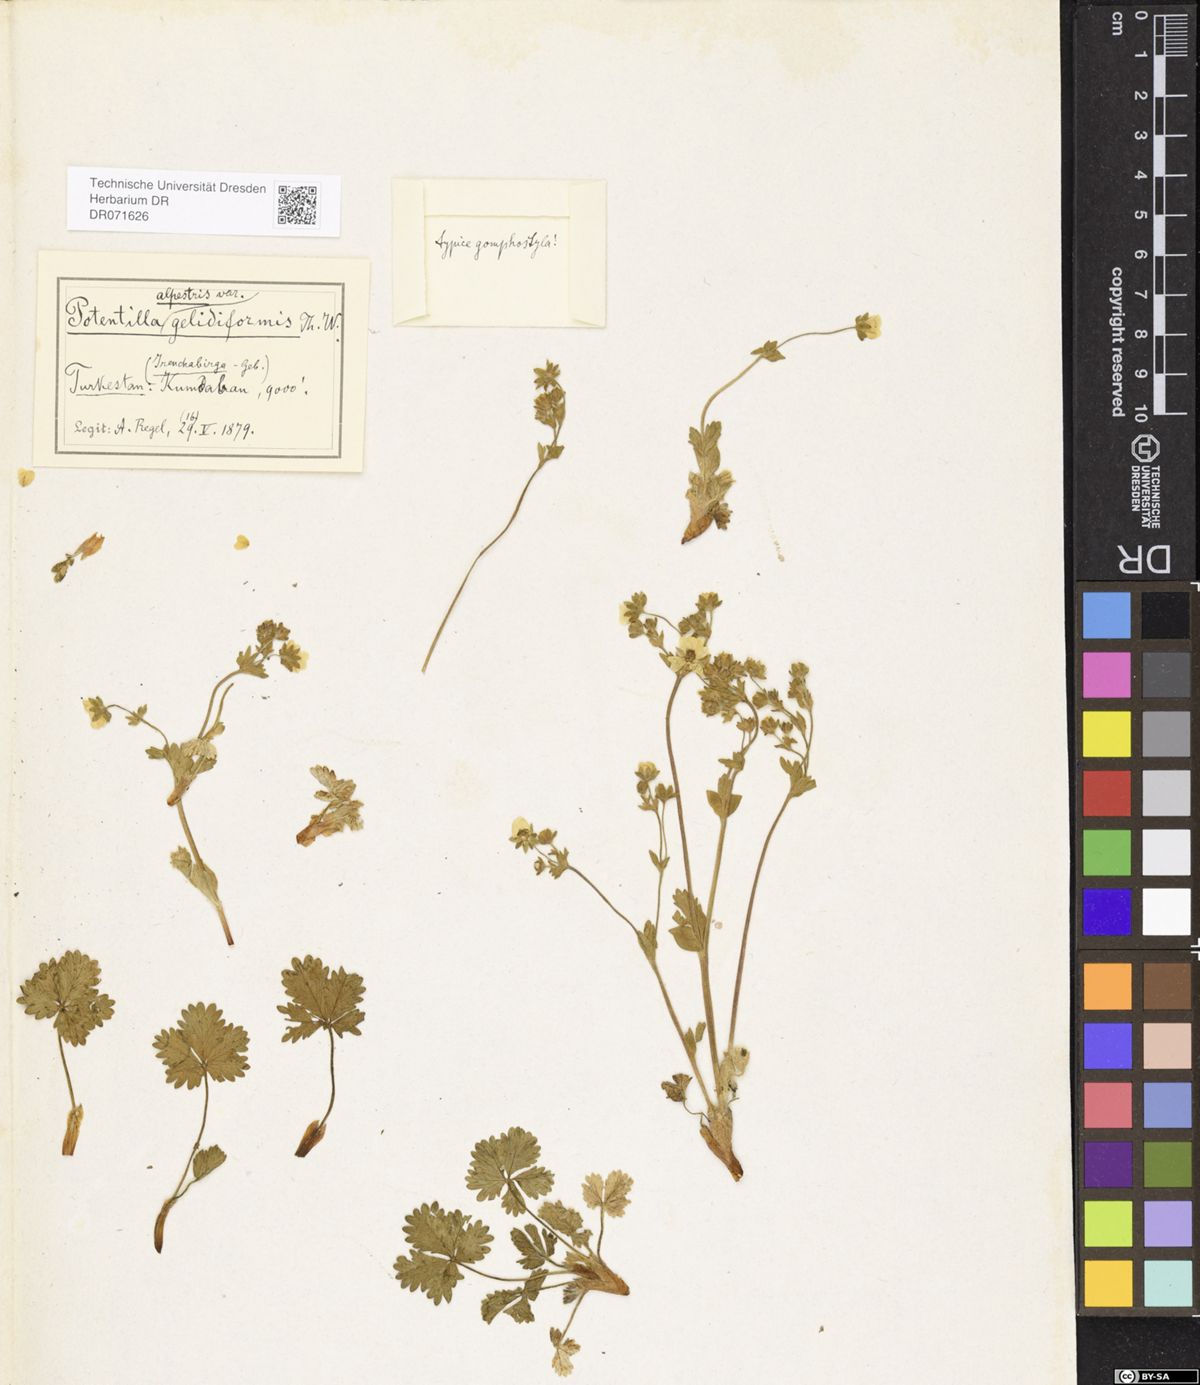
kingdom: Plantae
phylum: Tracheophyta
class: Magnoliopsida
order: Rosales
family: Rosaceae
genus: Potentilla
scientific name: Potentilla crantzii
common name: Alpine cinquefoil
